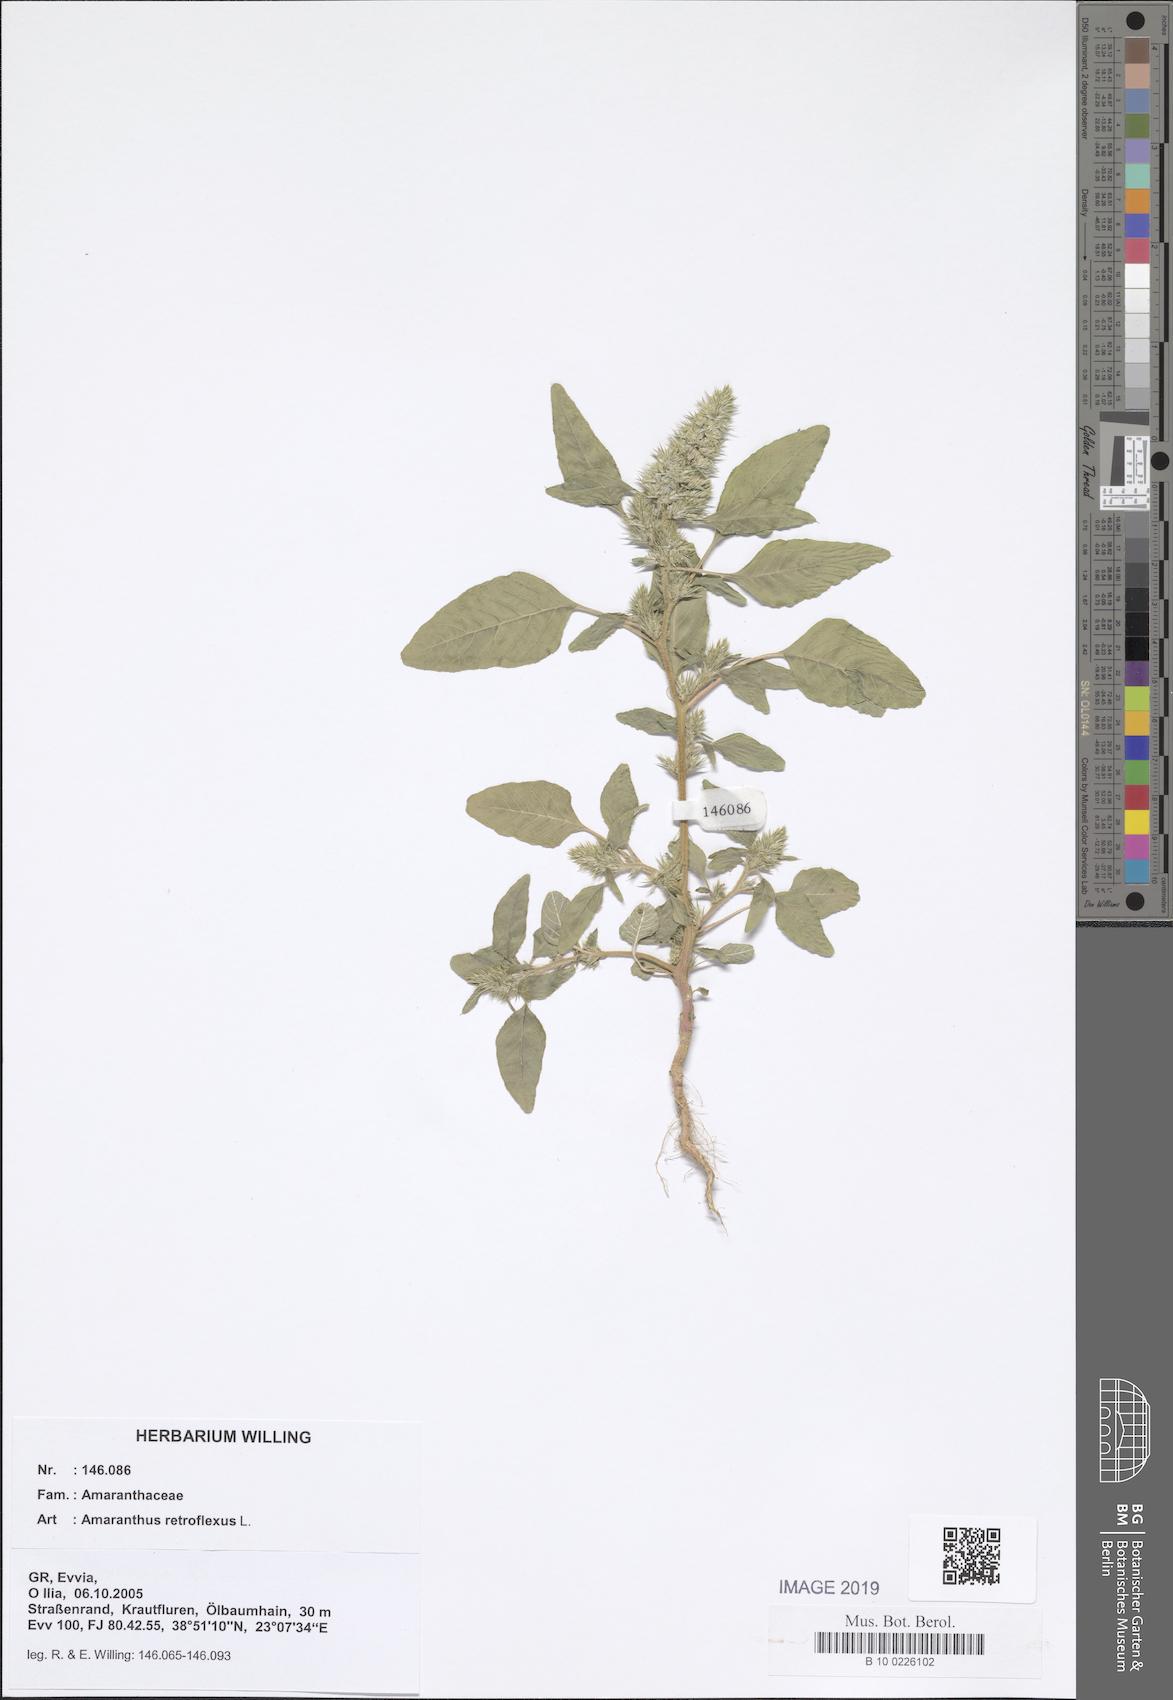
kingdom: Plantae
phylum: Tracheophyta
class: Magnoliopsida
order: Caryophyllales
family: Amaranthaceae
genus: Amaranthus
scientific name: Amaranthus retroflexus
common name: Redroot amaranth
